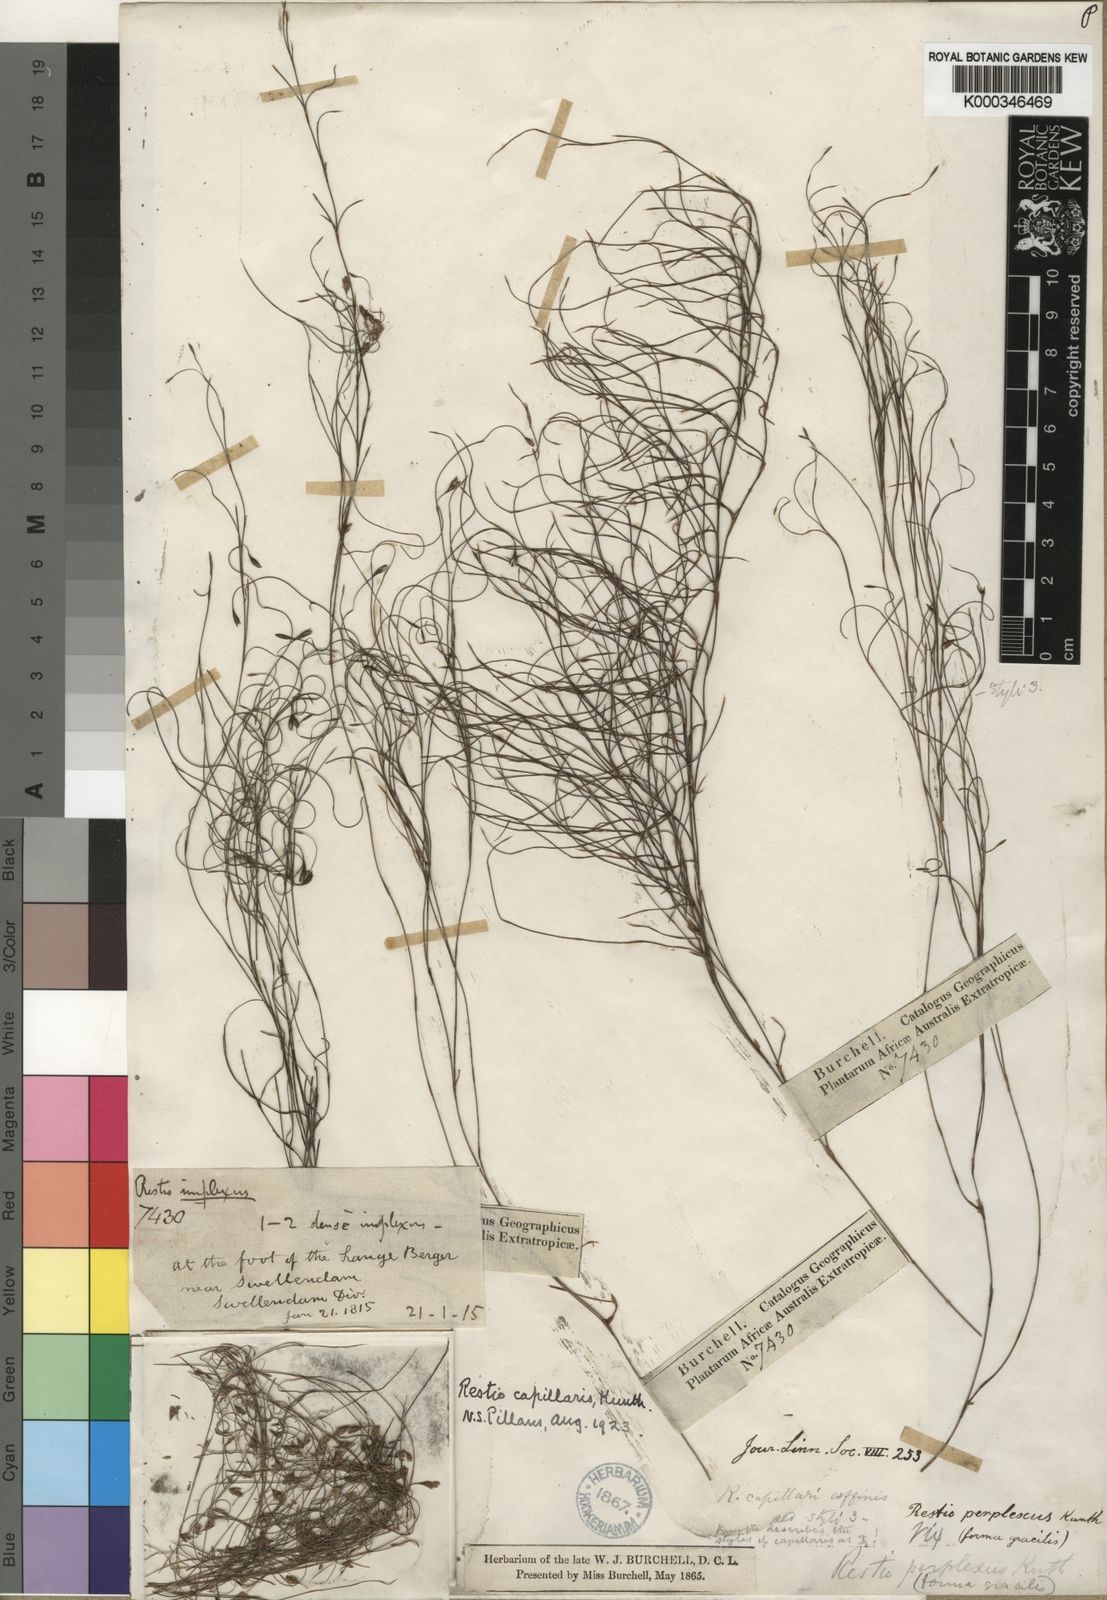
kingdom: Plantae
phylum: Tracheophyta
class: Liliopsida
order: Poales
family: Restionaceae
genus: Restio
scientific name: Restio capillaris
